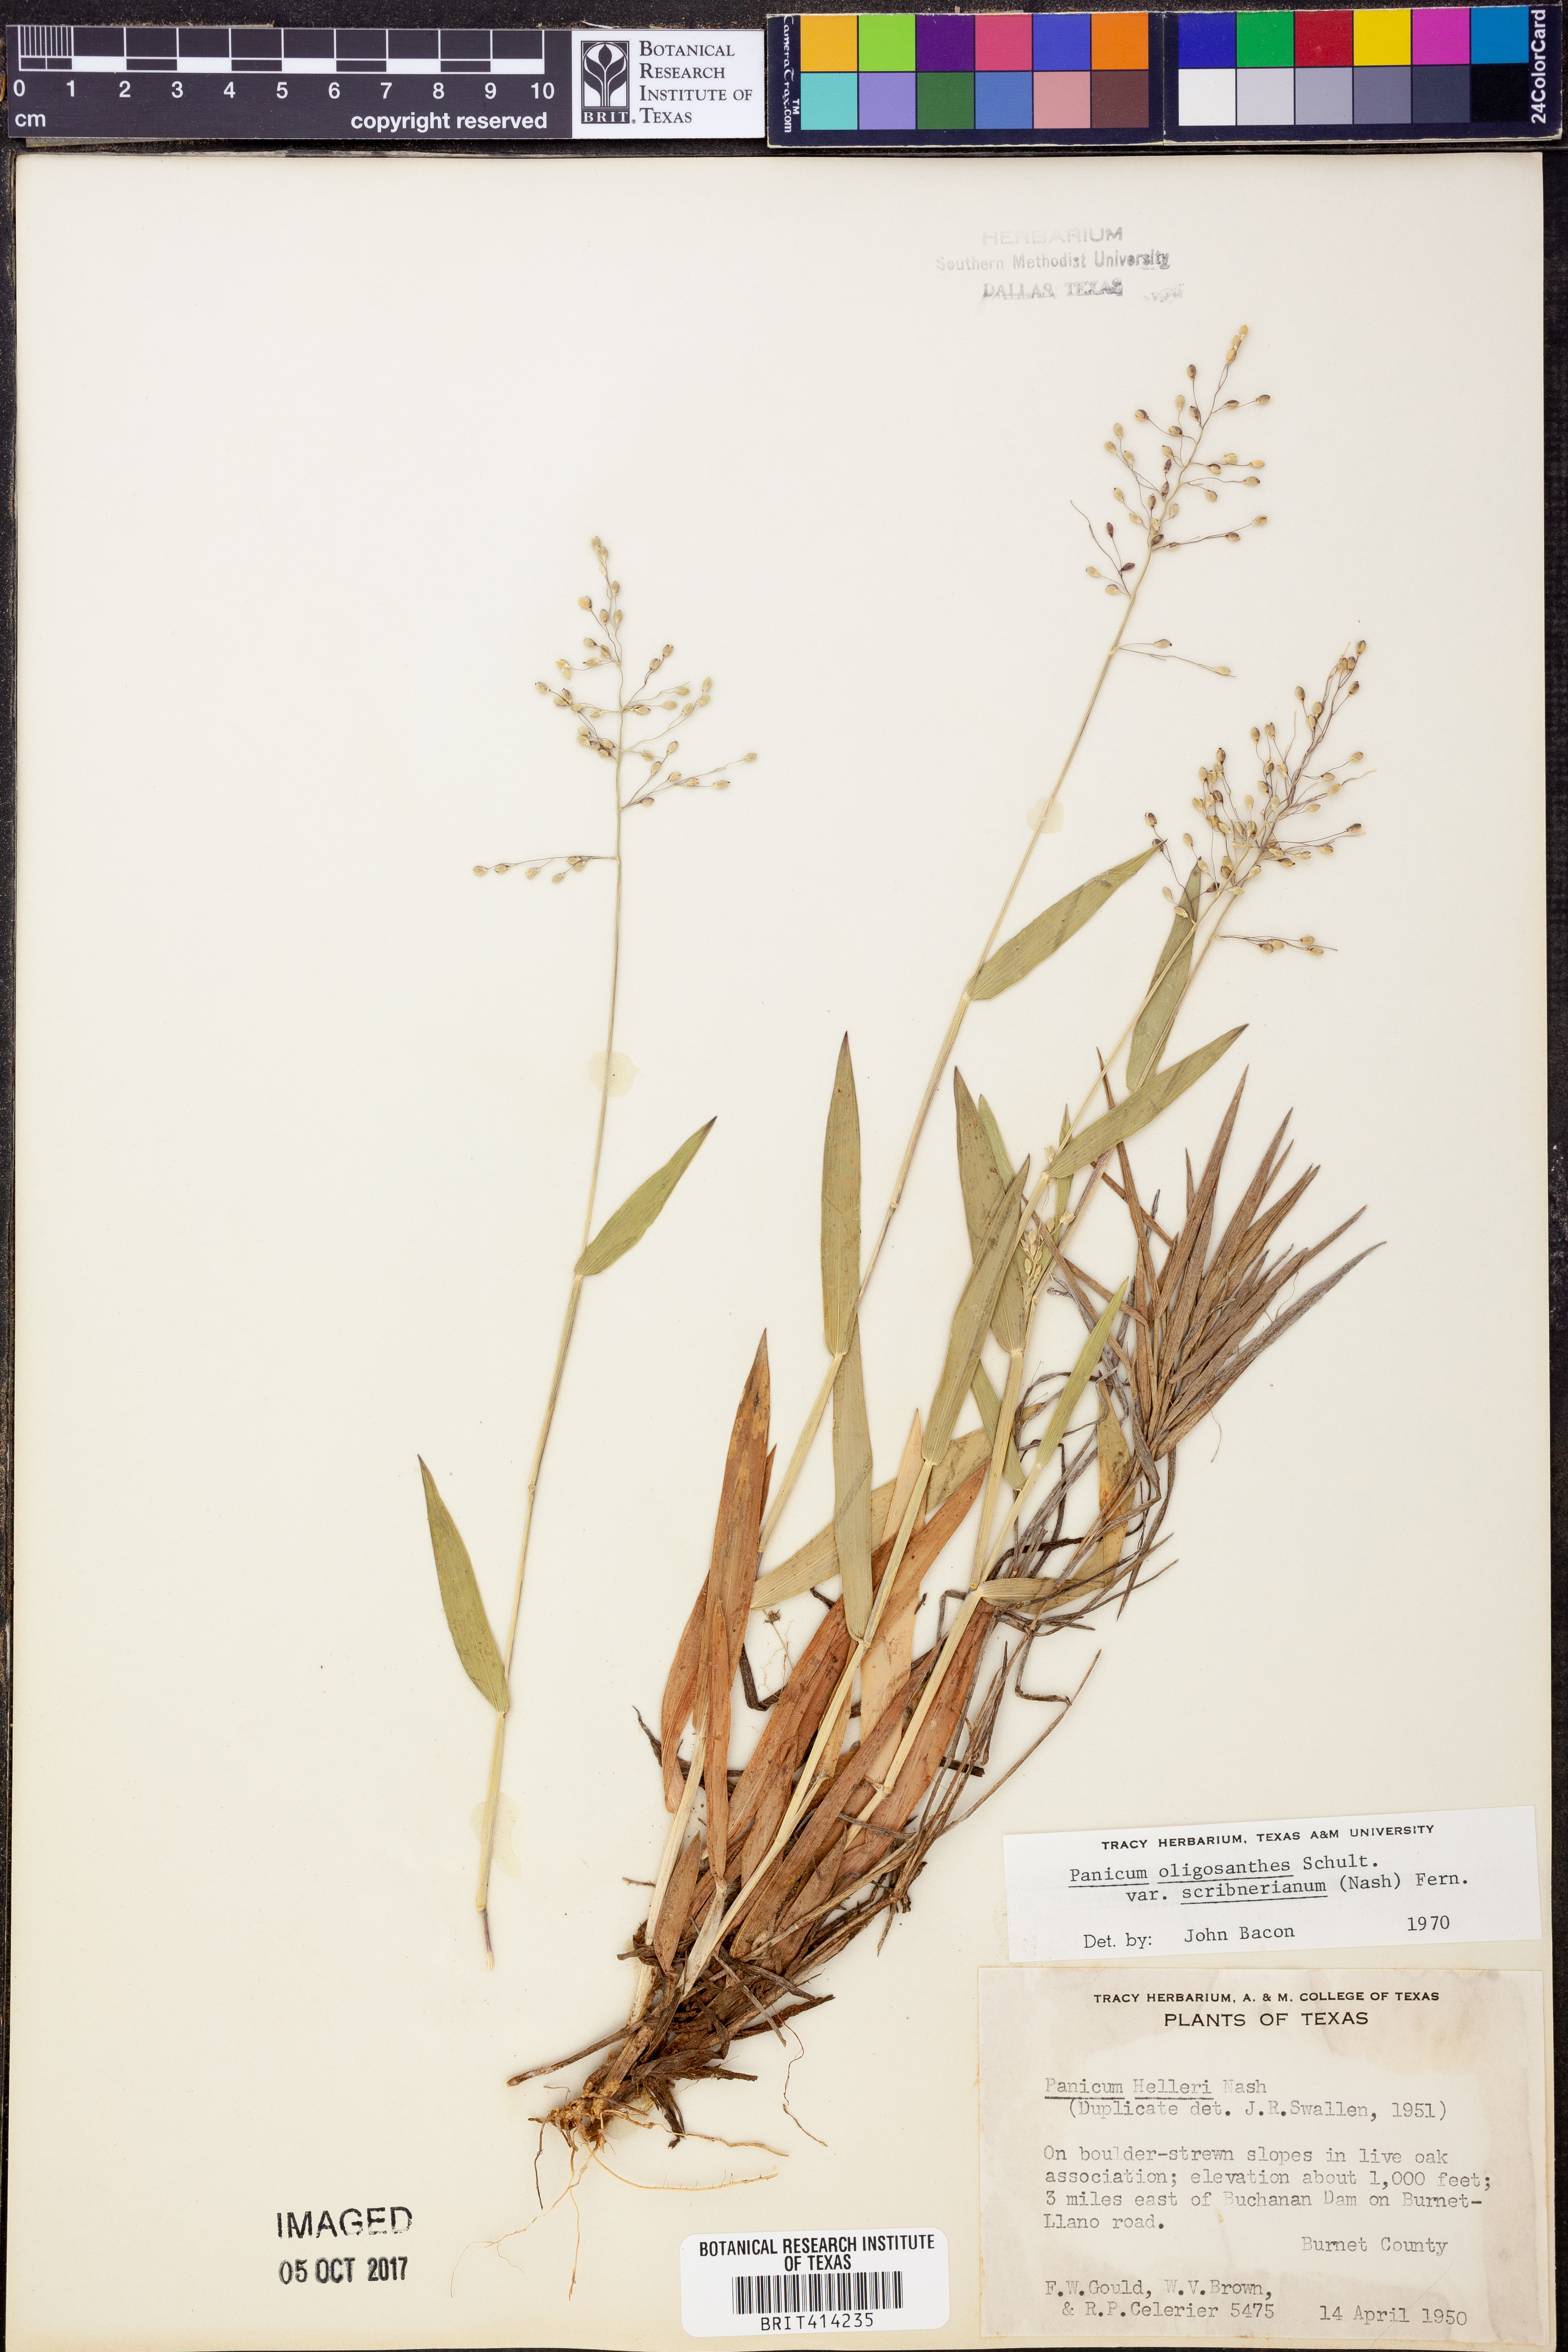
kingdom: Plantae
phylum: Tracheophyta
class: Liliopsida
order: Poales
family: Poaceae
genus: Dichanthelium
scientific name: Dichanthelium scribnerianum
